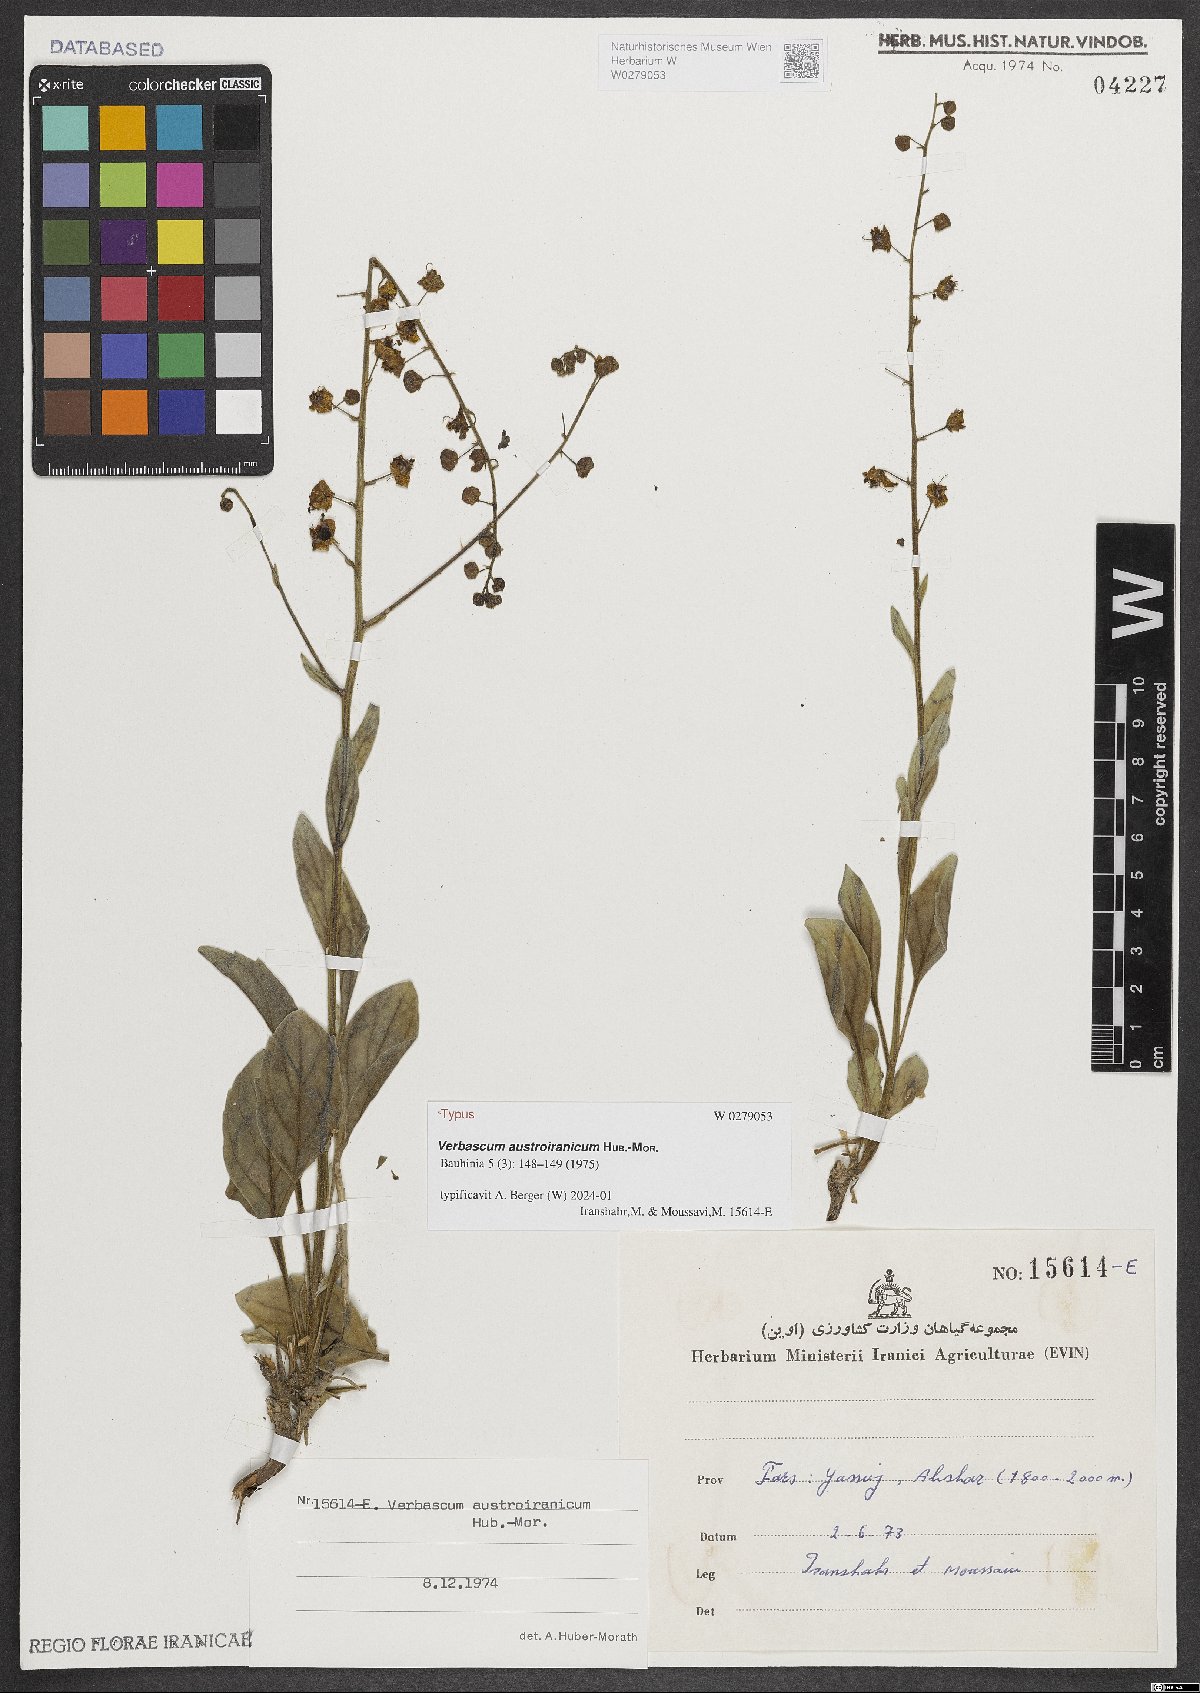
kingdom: Plantae
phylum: Tracheophyta
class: Magnoliopsida
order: Lamiales
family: Scrophulariaceae
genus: Verbascum
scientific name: Verbascum austroiranicum
